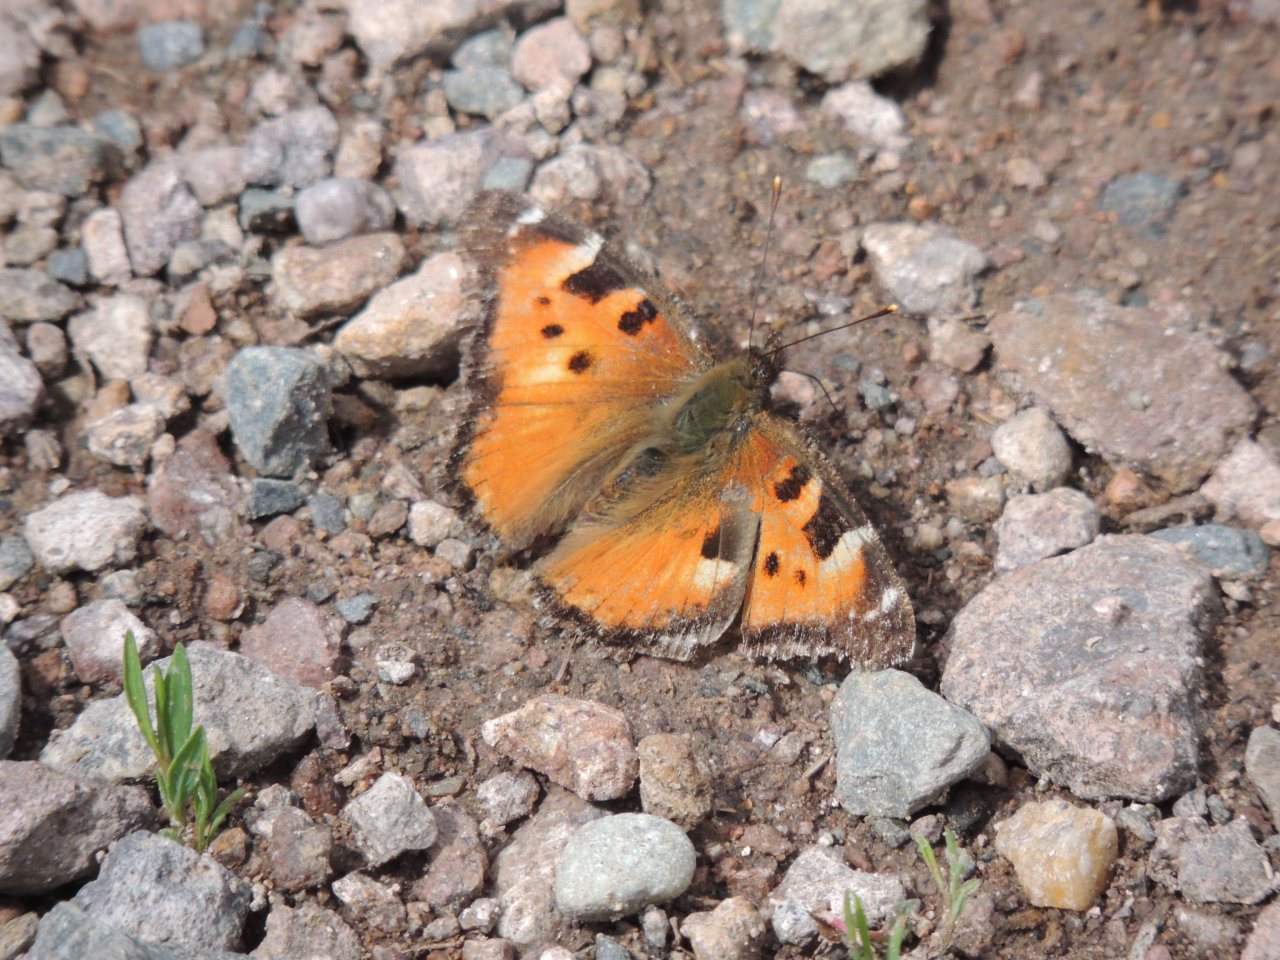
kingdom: Animalia
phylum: Arthropoda
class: Insecta
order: Lepidoptera
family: Nymphalidae
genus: Nymphalis
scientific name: Nymphalis californica
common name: California Tortoiseshell
